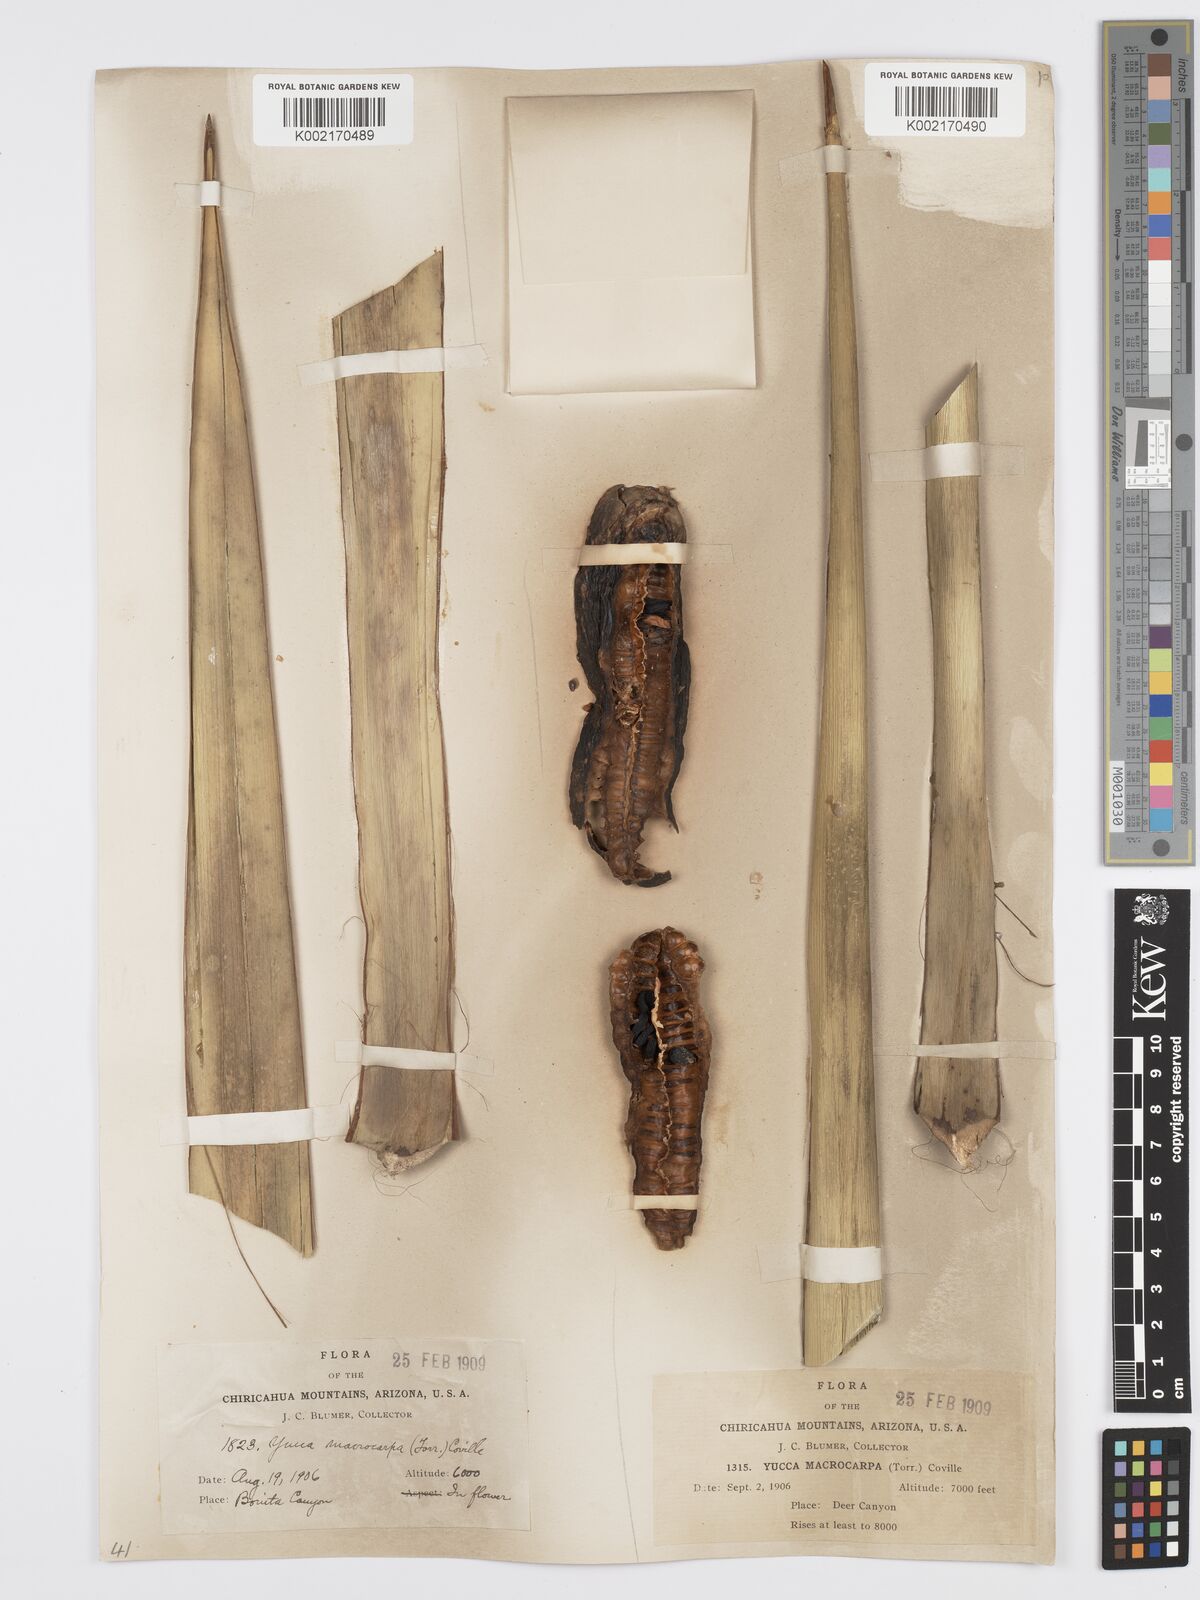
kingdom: Plantae
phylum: Tracheophyta
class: Liliopsida
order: Asparagales
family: Asparagaceae
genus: Yucca
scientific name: Yucca schottii
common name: Hoary yucca
